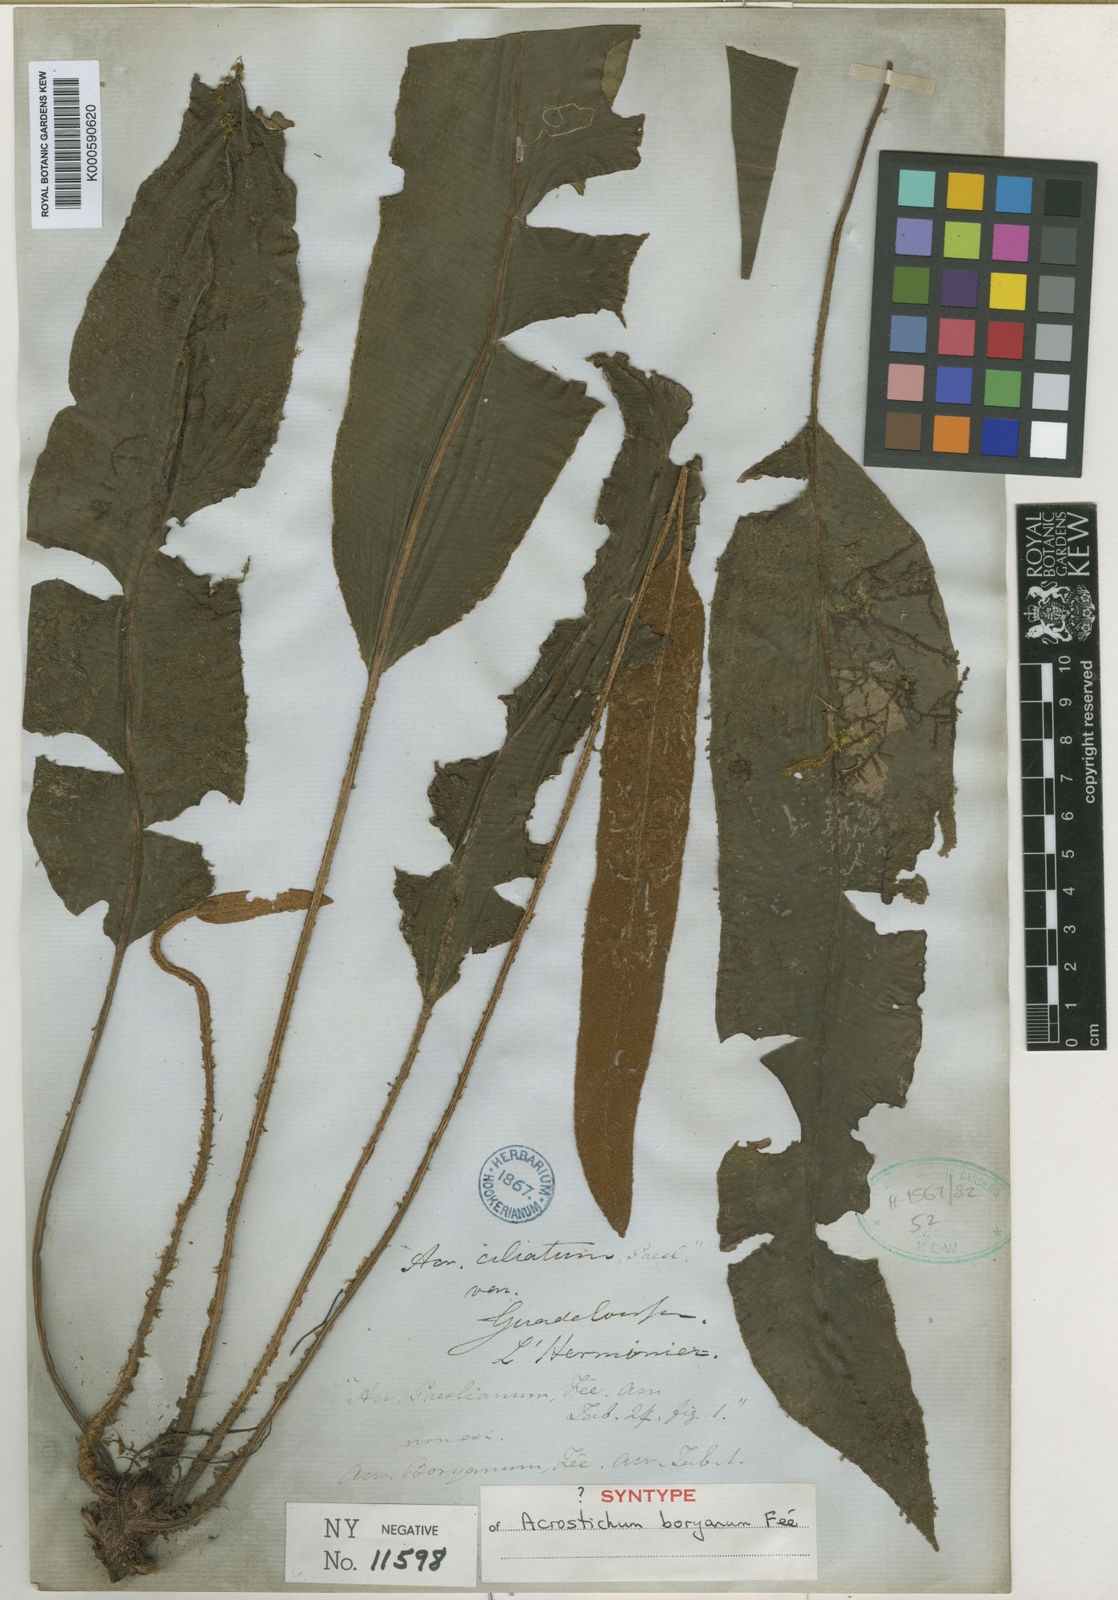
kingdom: Plantae
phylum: Tracheophyta
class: Polypodiopsida
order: Polypodiales
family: Dryopteridaceae
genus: Elaphoglossum
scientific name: Elaphoglossum
